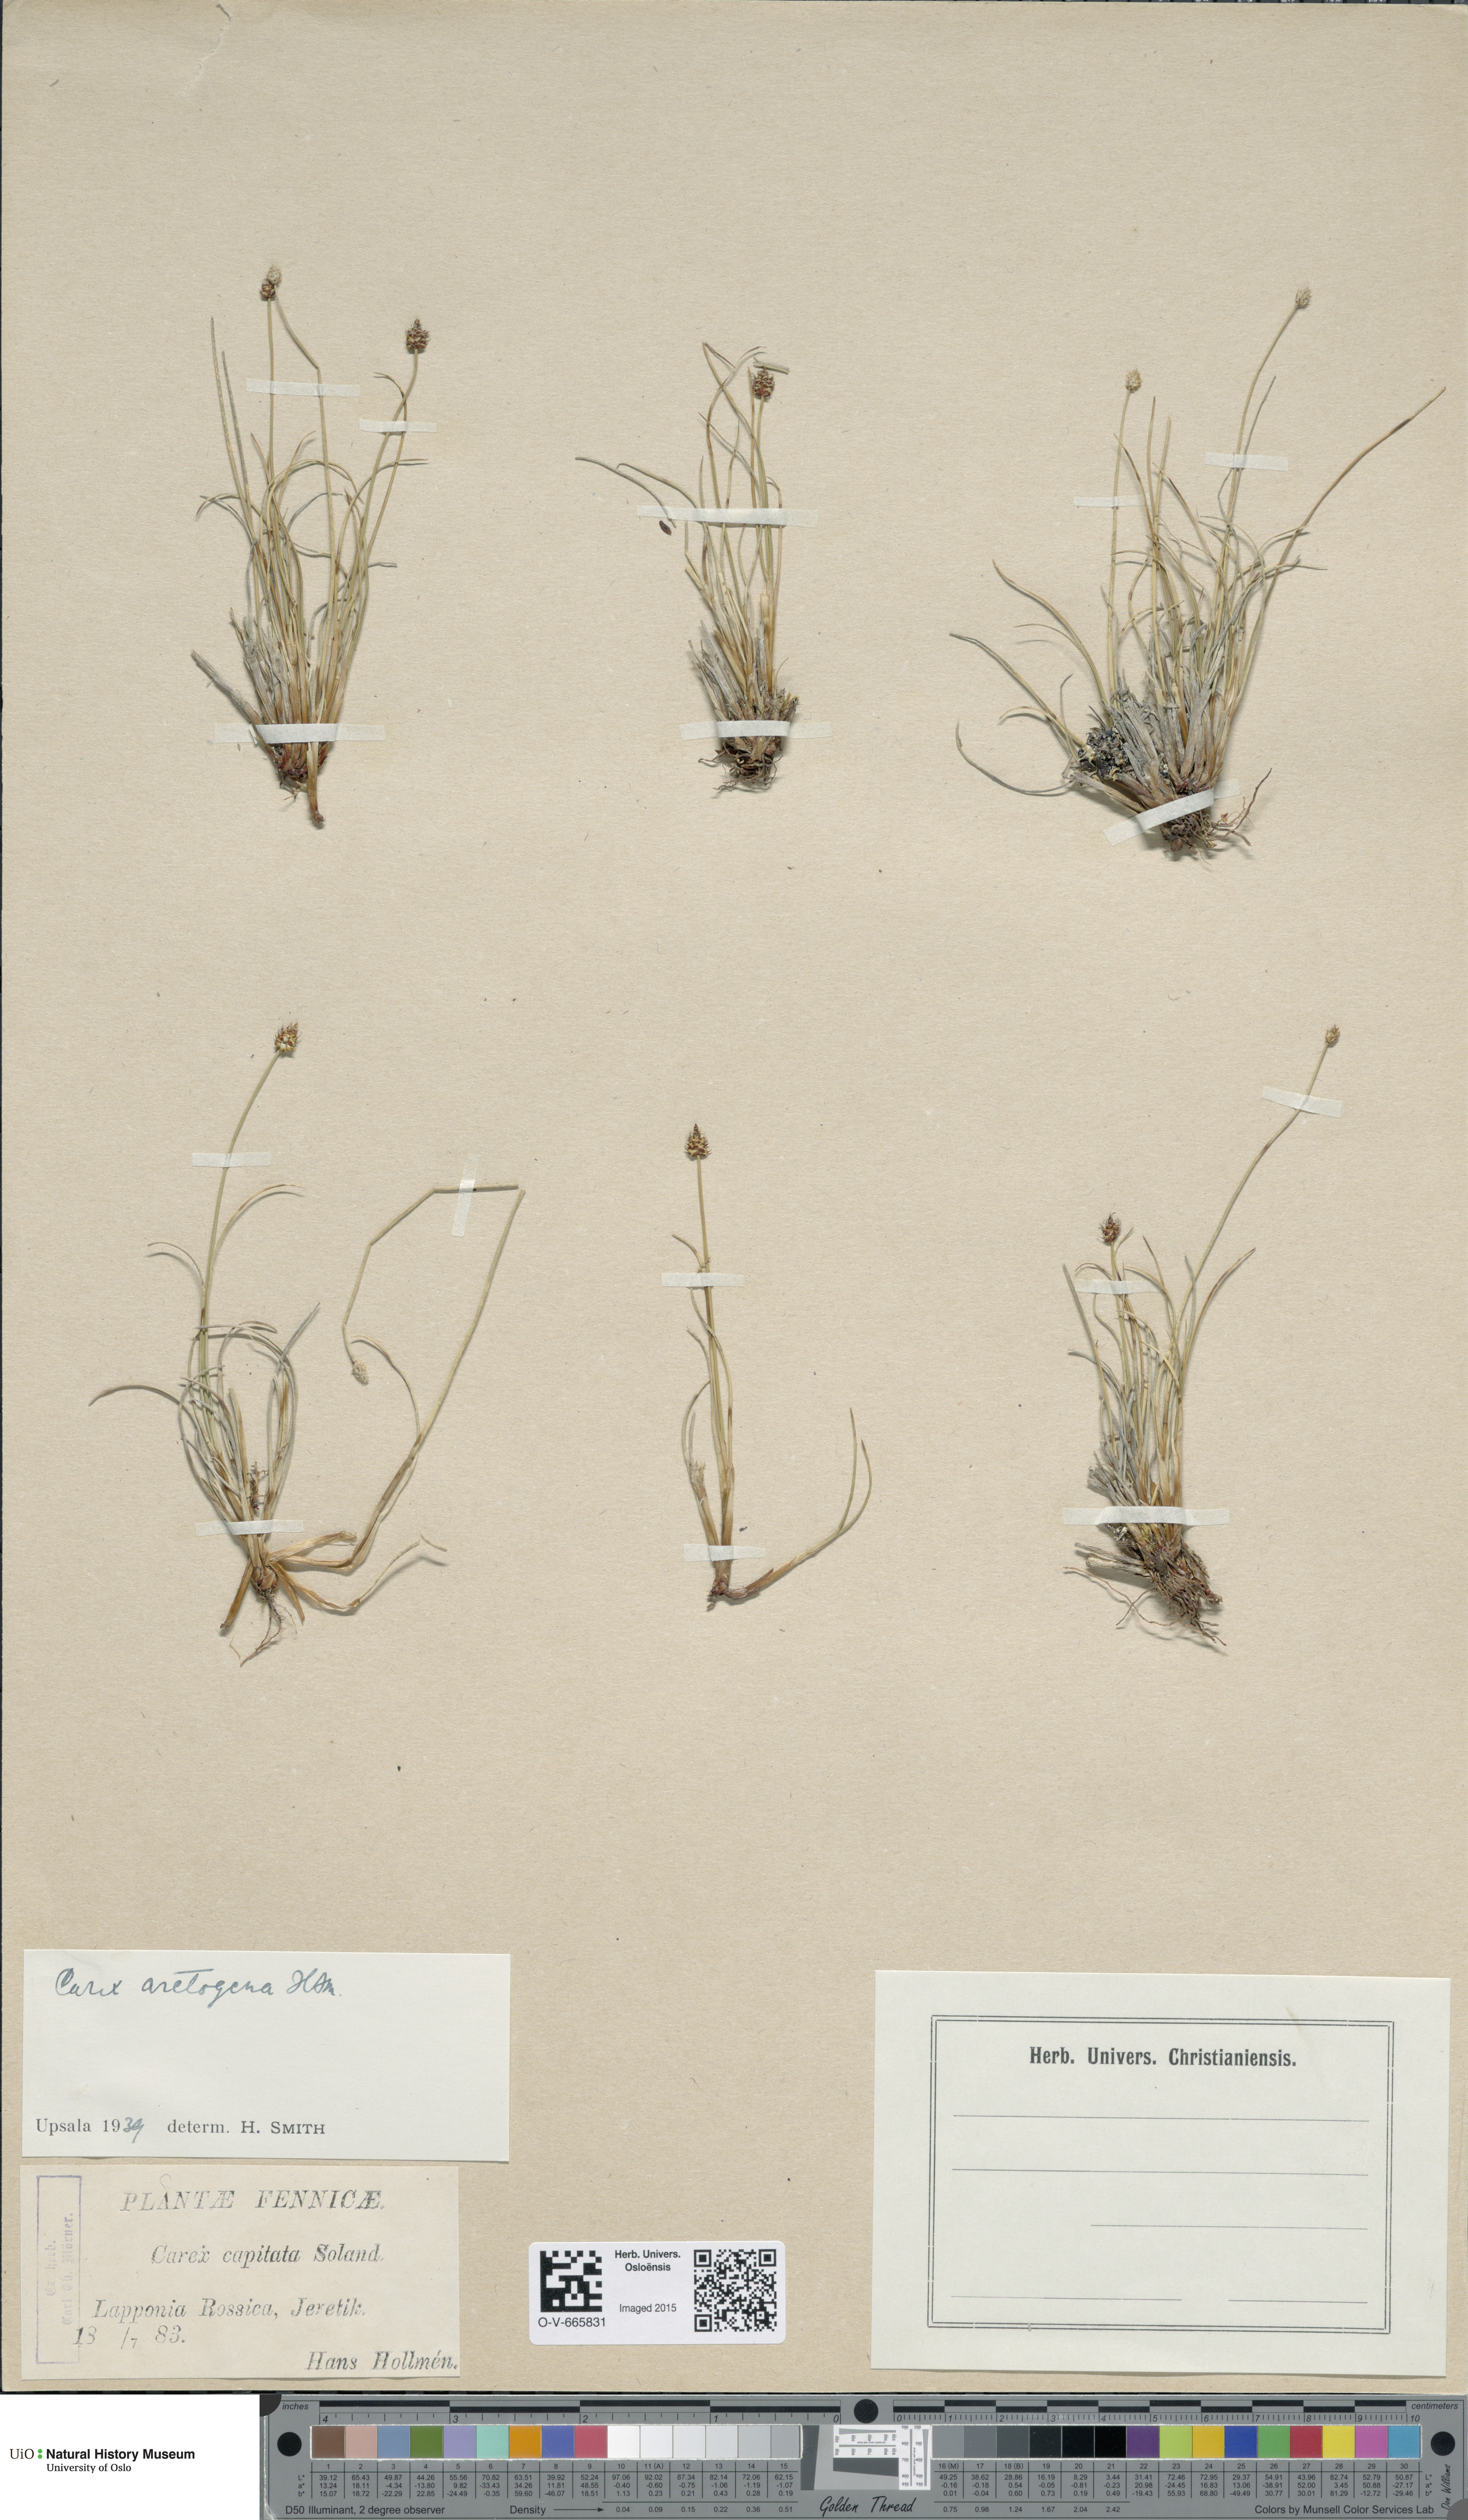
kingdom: Plantae
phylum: Tracheophyta
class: Liliopsida
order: Poales
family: Cyperaceae
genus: Carex
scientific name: Carex arctogena
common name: Black sedge
